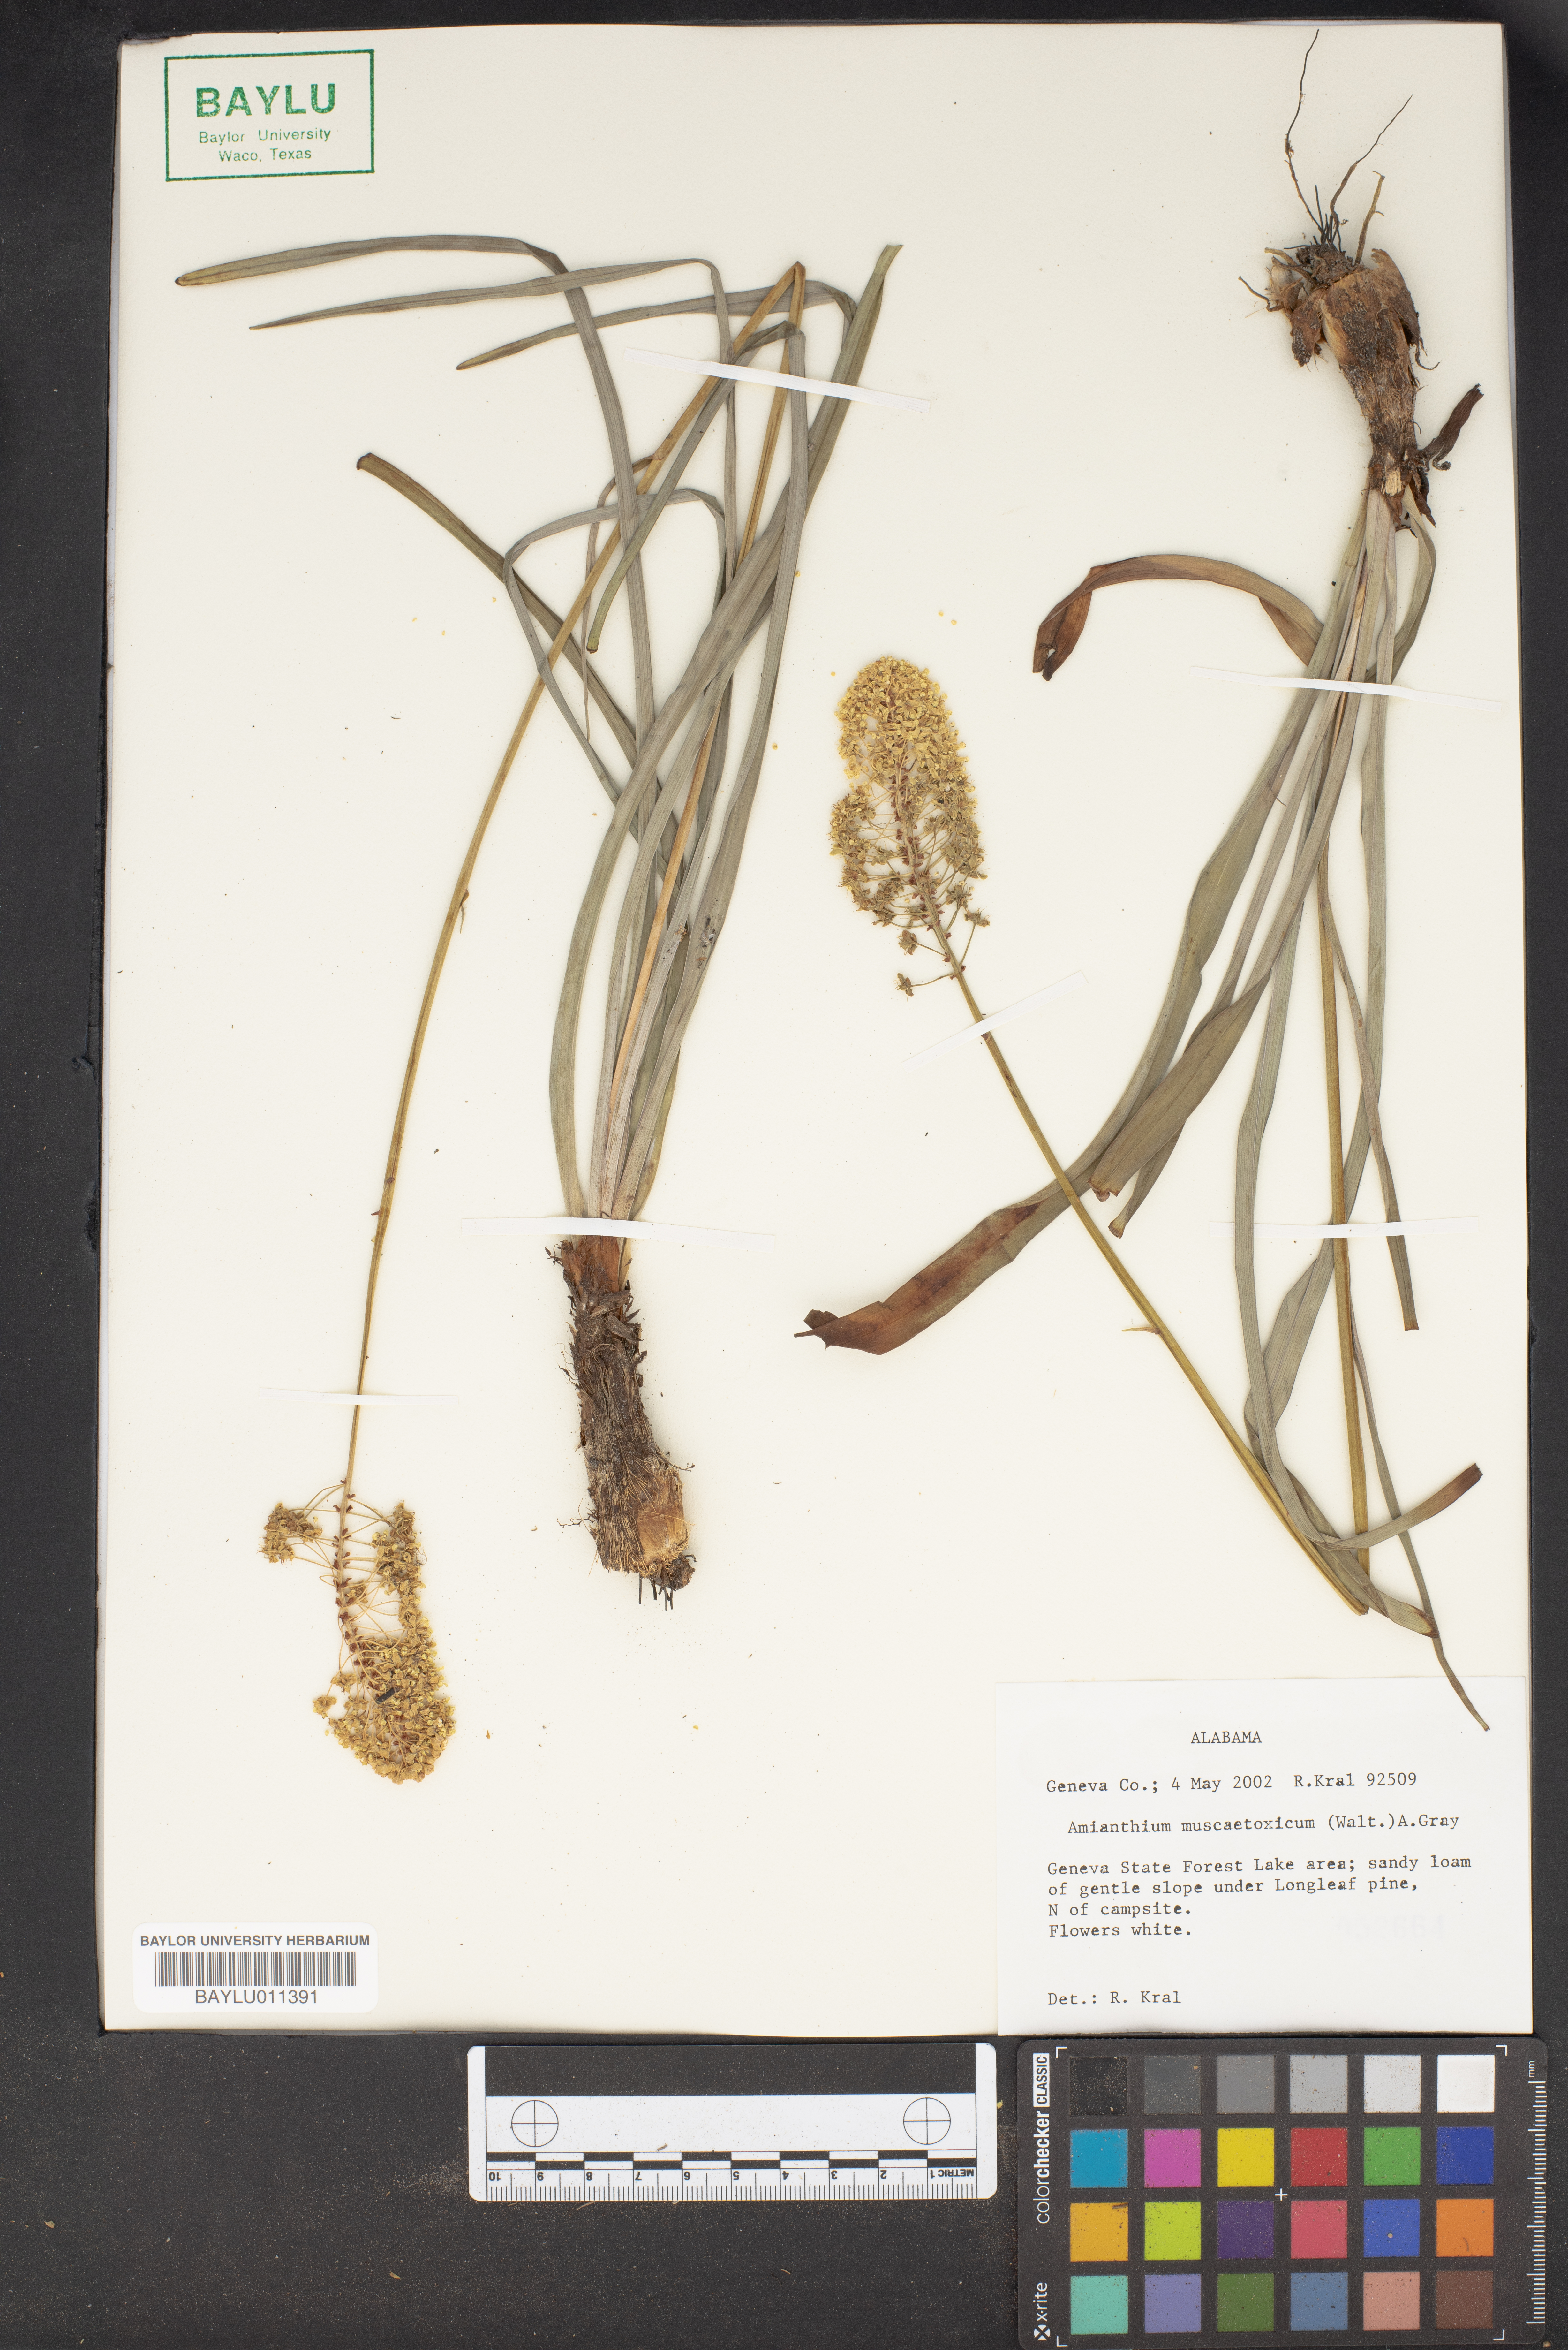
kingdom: Plantae
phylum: Tracheophyta
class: Liliopsida
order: Liliales
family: Melanthiaceae
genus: Amianthium
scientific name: Amianthium muscitoxicum
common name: Fly-poison
